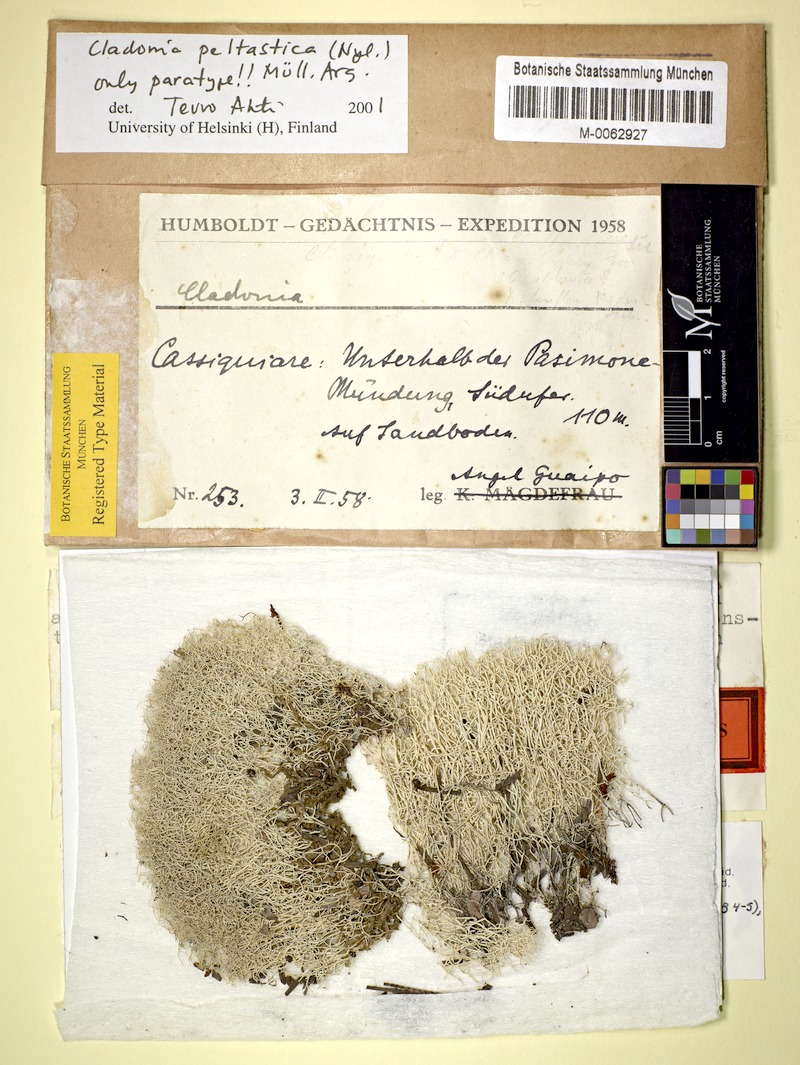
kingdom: Fungi
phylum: Ascomycota
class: Lecanoromycetes
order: Lecanorales
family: Cladoniaceae
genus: Cladonia
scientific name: Cladonia pertricosa
